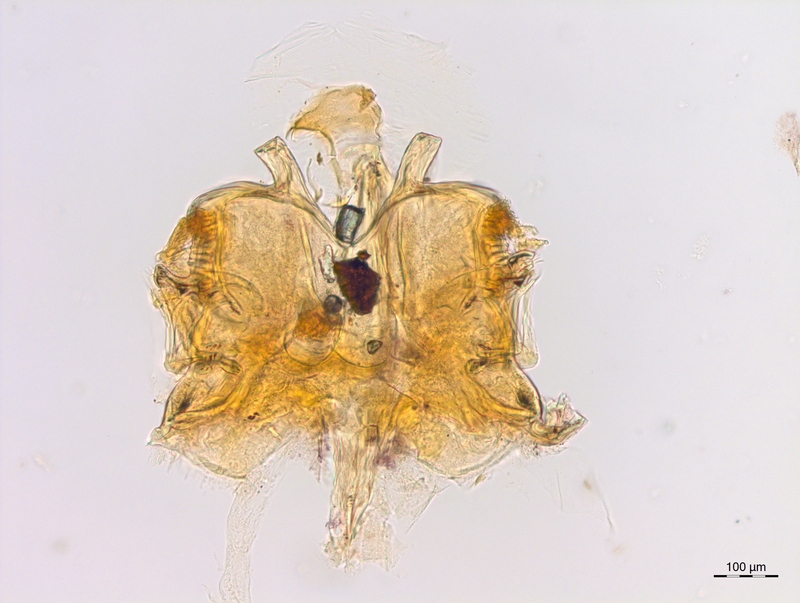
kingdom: Animalia
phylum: Arthropoda
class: Diplopoda
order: Chordeumatida
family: Craspedosomatidae
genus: Craspedosoma
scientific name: Craspedosoma doranum
